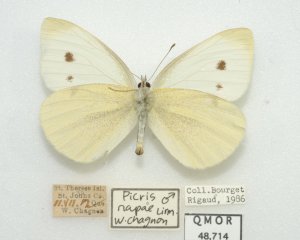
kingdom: Animalia
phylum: Arthropoda
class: Insecta
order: Lepidoptera
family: Pieridae
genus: Pieris
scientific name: Pieris rapae
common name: Cabbage White
